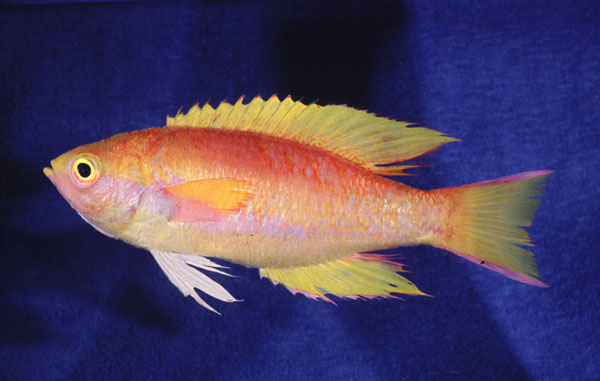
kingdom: Animalia
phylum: Chordata
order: Perciformes
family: Callanthiidae
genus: Callanthias
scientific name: Callanthias legras
